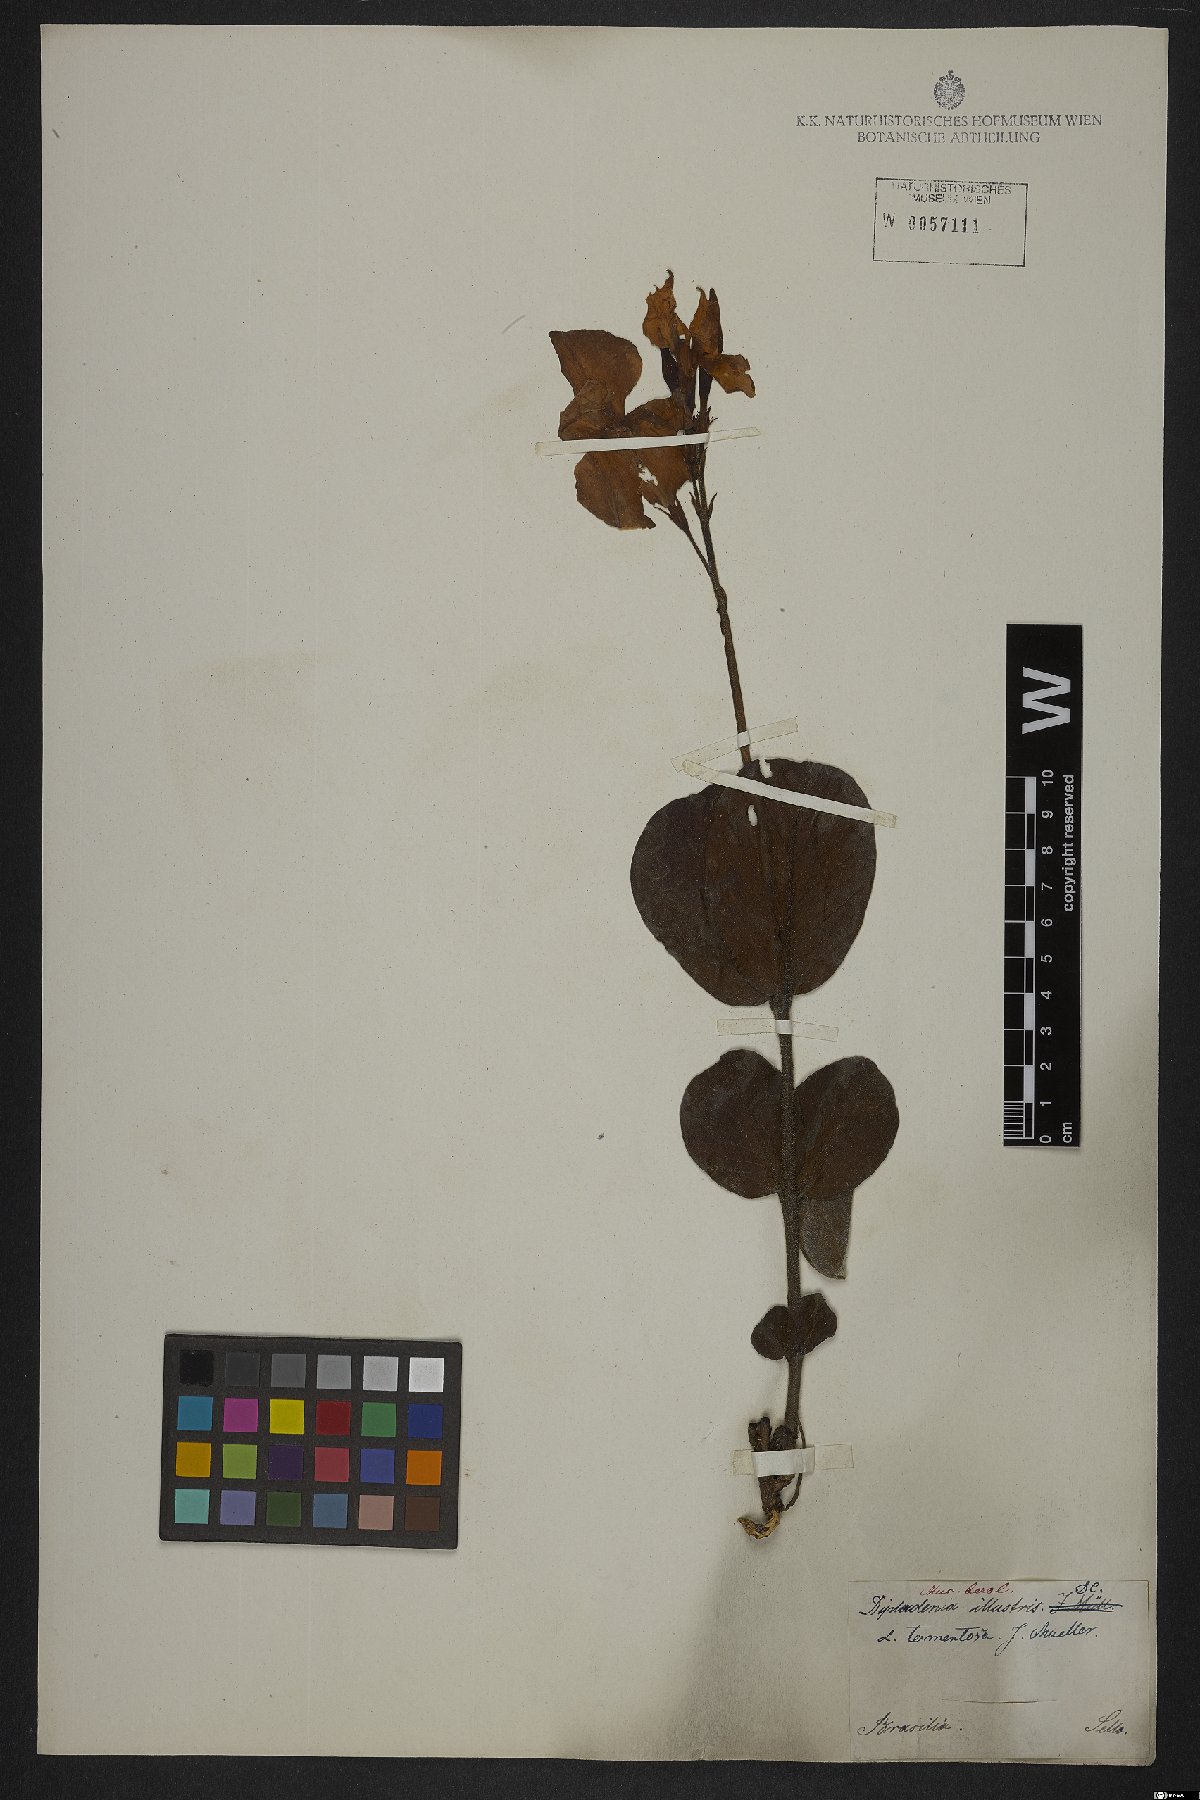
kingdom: Plantae
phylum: Tracheophyta
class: Magnoliopsida
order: Gentianales
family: Apocynaceae
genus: Mandevilla
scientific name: Mandevilla illustris
